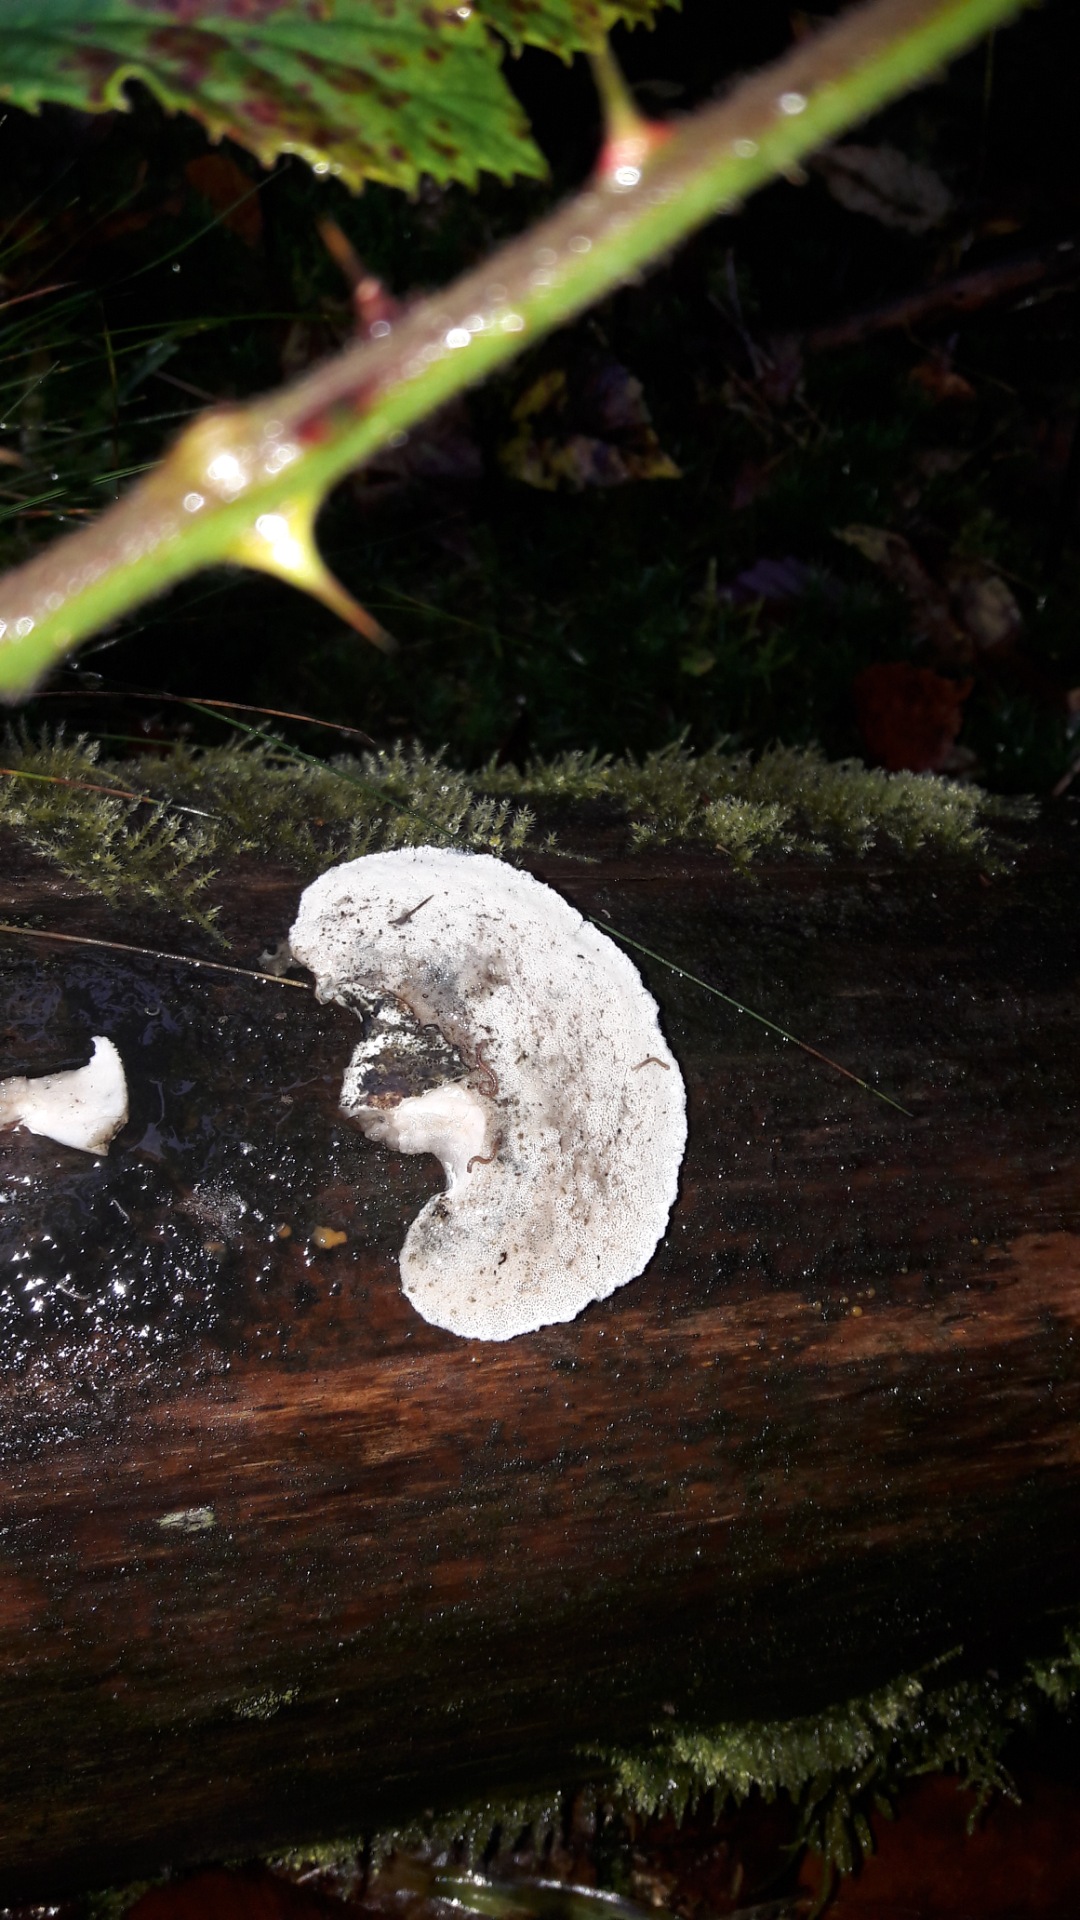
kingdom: Fungi
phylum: Basidiomycota
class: Agaricomycetes
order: Polyporales
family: Polyporaceae
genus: Cyanosporus
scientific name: Cyanosporus caesius
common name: blålig kødporesvamp
